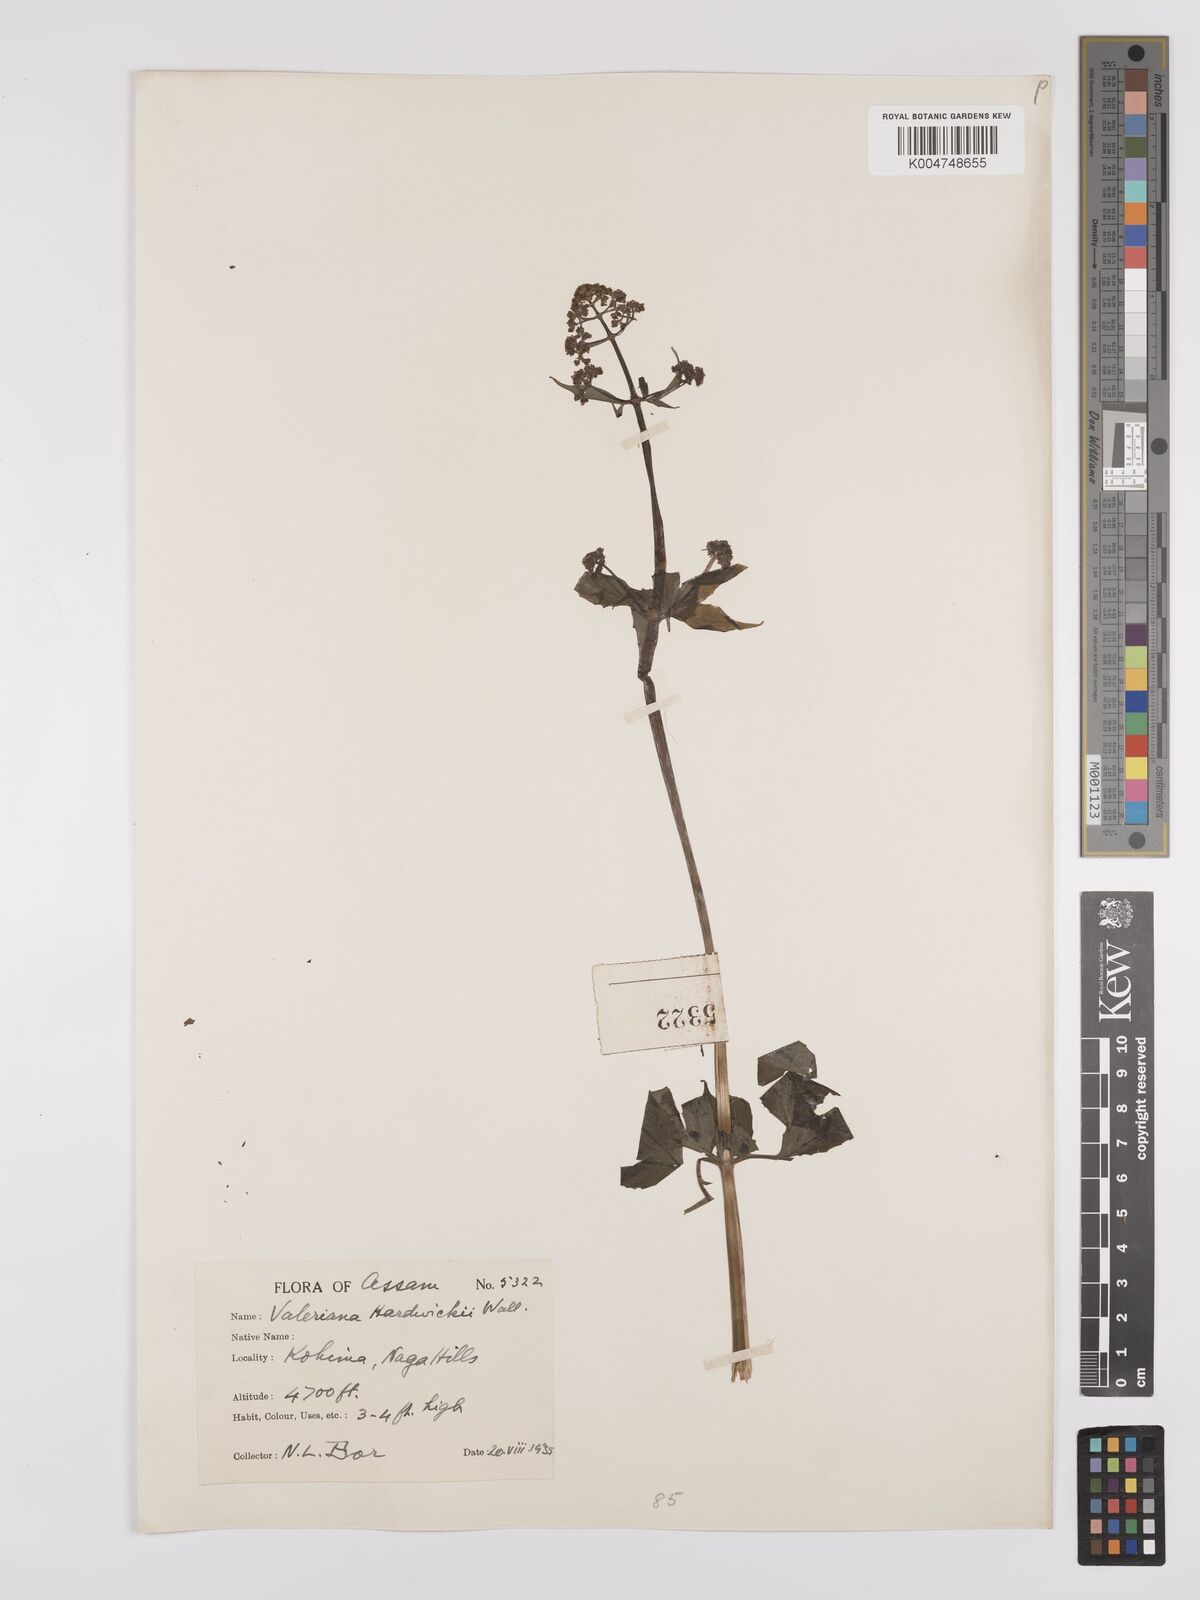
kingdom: Plantae
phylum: Tracheophyta
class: Magnoliopsida
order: Dipsacales
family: Caprifoliaceae
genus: Valeriana
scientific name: Valeriana hardwickei
